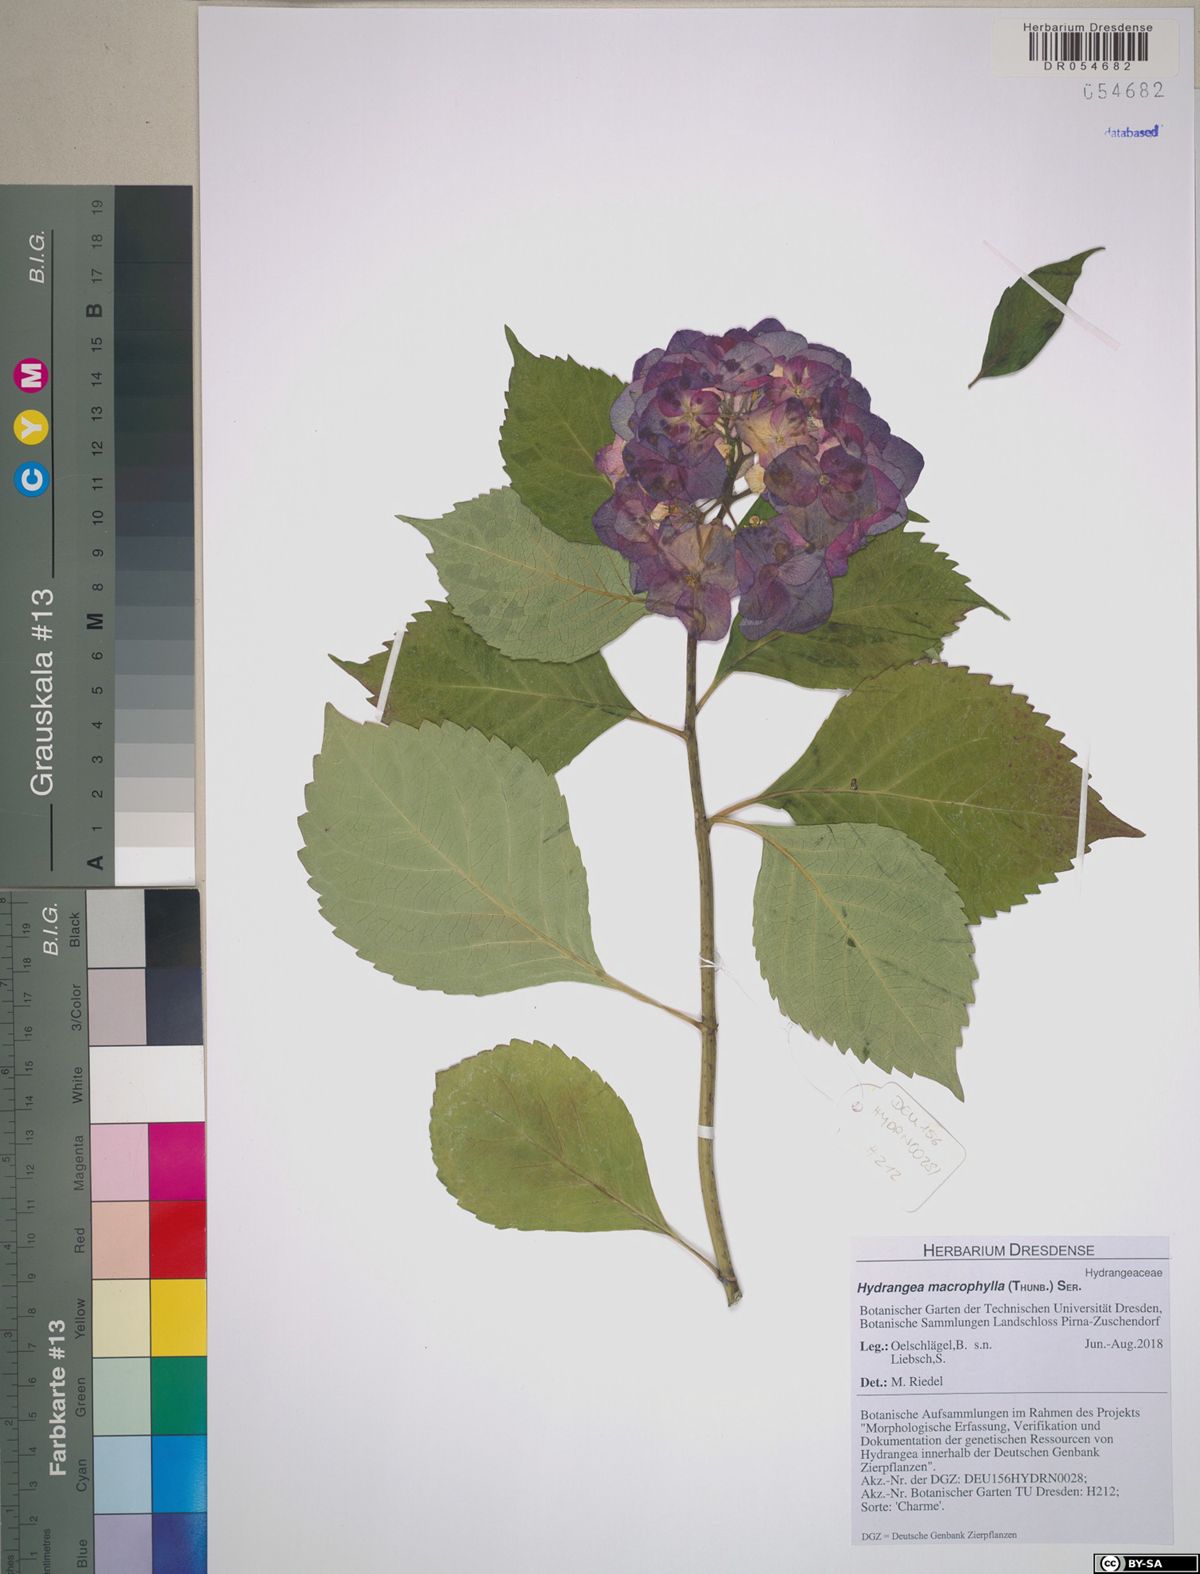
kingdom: Plantae
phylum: Tracheophyta
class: Magnoliopsida
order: Cornales
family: Hydrangeaceae
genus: Hydrangea
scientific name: Hydrangea macrophylla
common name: Hydrangea
